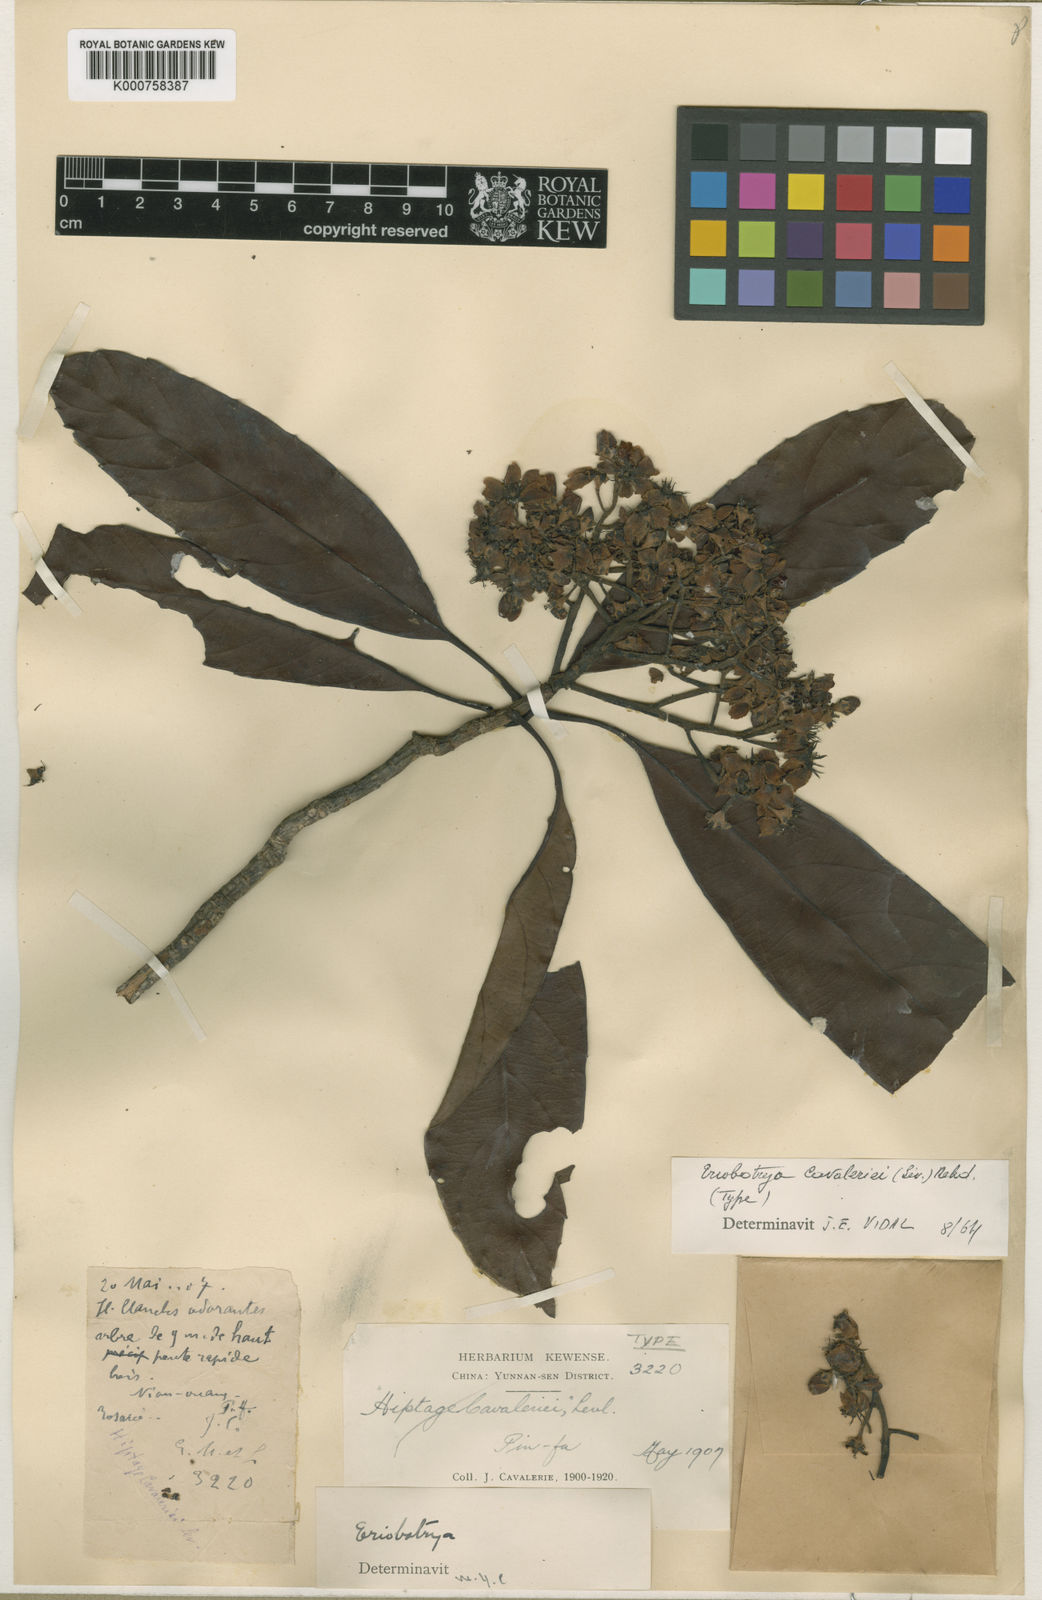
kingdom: Plantae
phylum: Tracheophyta
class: Magnoliopsida
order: Rosales
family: Rosaceae
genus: Rhaphiolepis
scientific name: Rhaphiolepis
